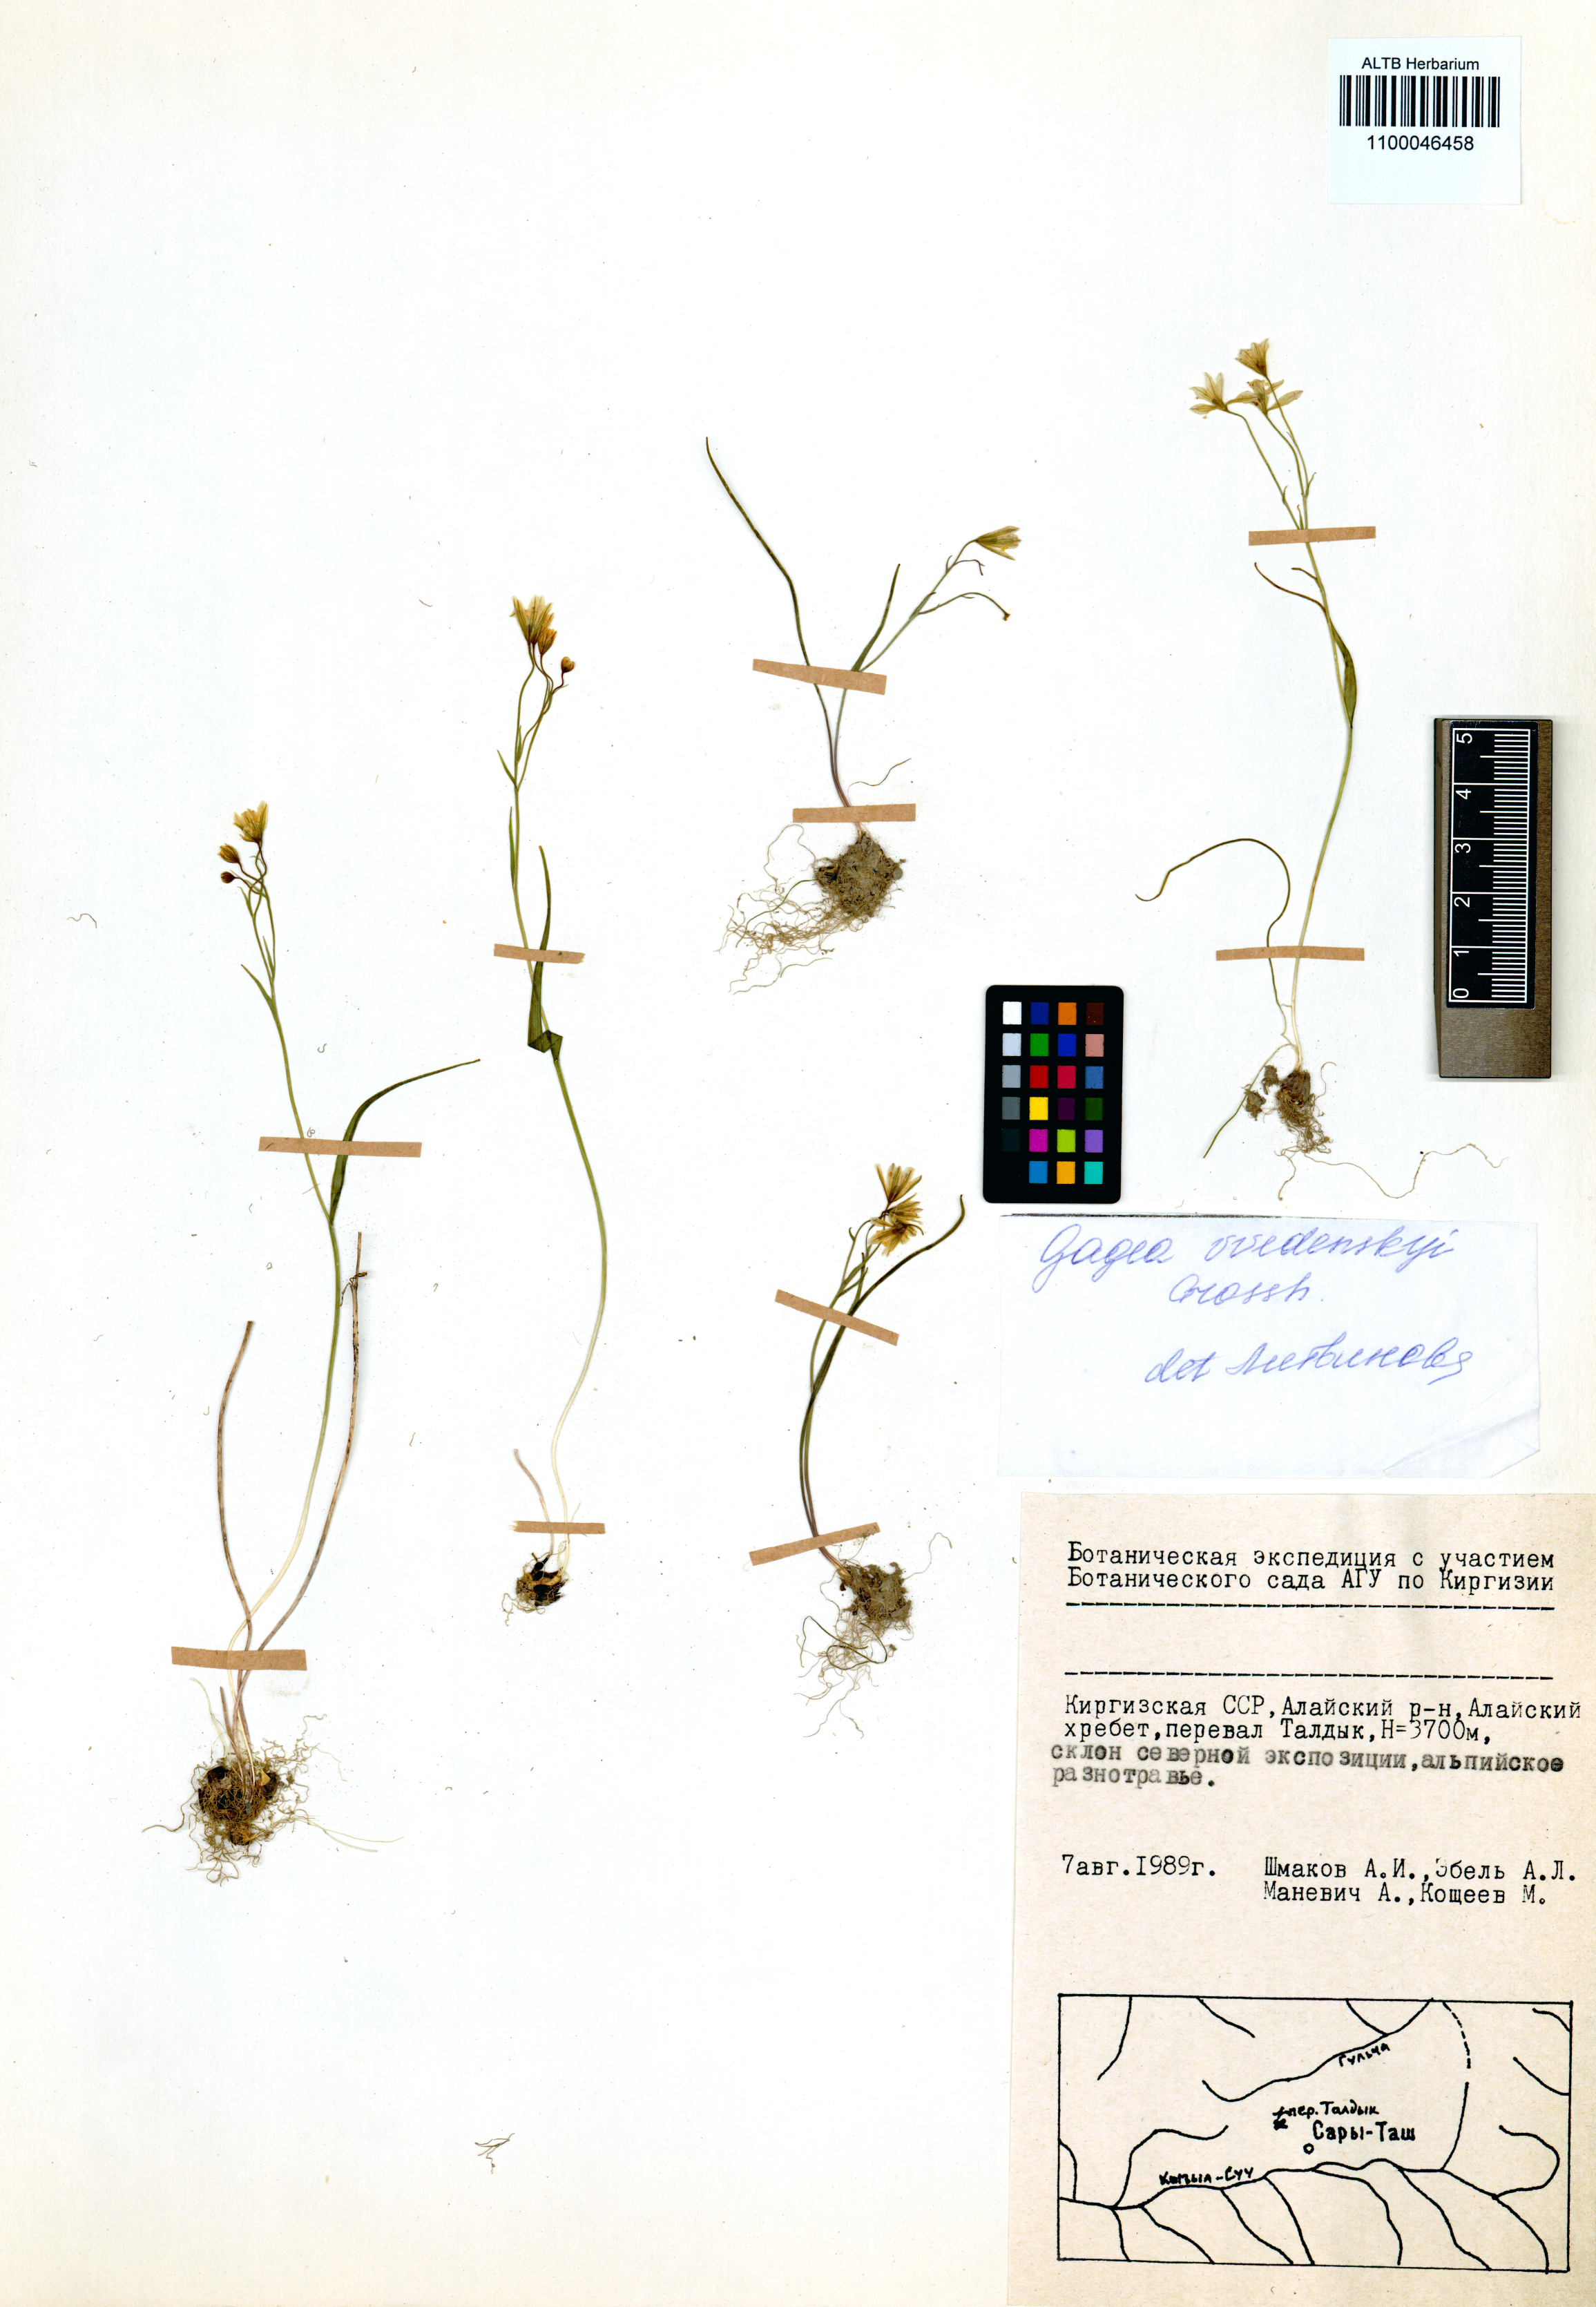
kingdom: Plantae
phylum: Tracheophyta
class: Liliopsida
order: Liliales
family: Liliaceae
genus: Gagea
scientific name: Gagea vvedenskyi
